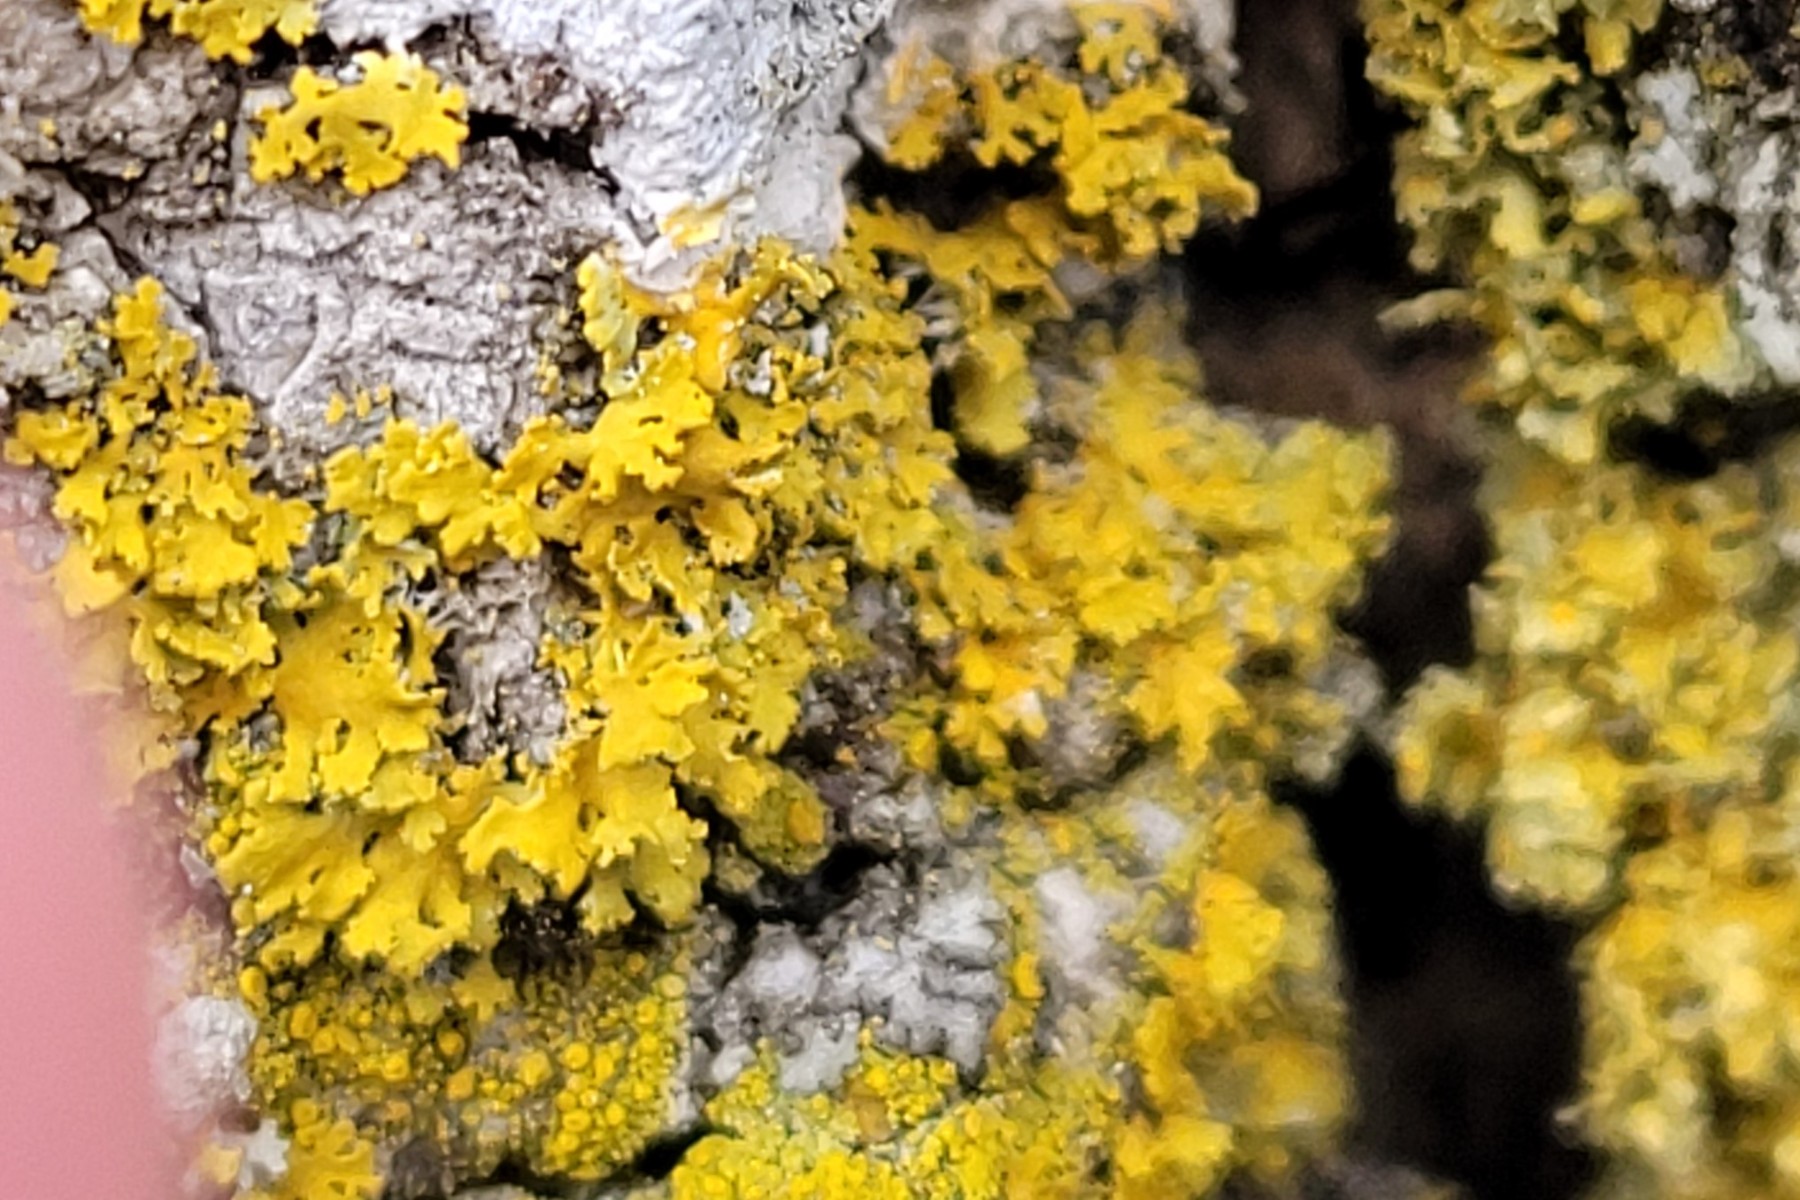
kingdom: Fungi
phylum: Ascomycota
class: Lecanoromycetes
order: Teloschistales
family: Teloschistaceae
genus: Xanthomendoza
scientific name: Xanthomendoza oregana
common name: Poelts væggelav
